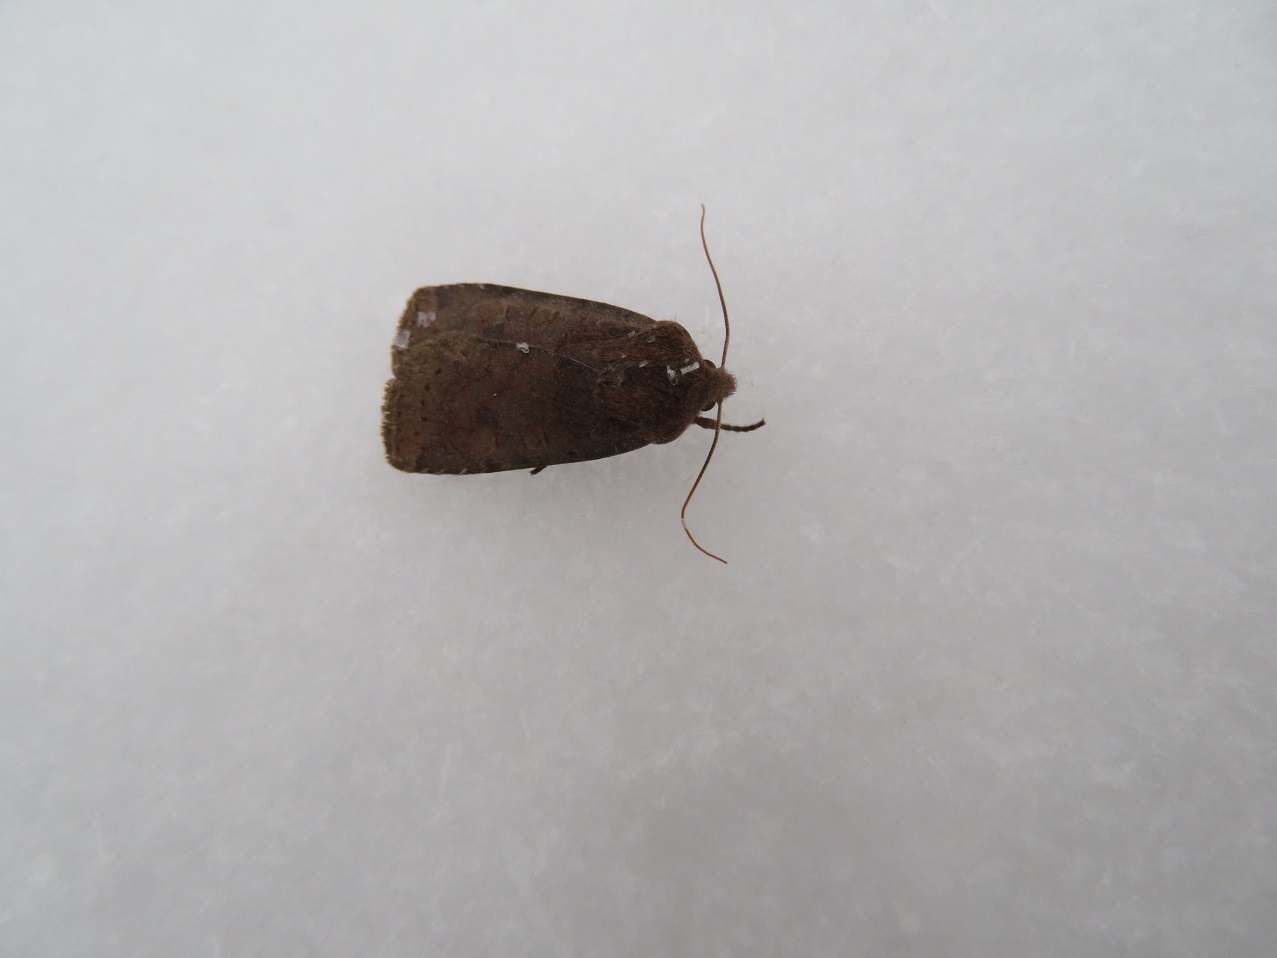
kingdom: Animalia
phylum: Arthropoda
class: Insecta
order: Lepidoptera
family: Noctuidae
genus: Conistra
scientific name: Conistra vaccinii
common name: Chestnut
